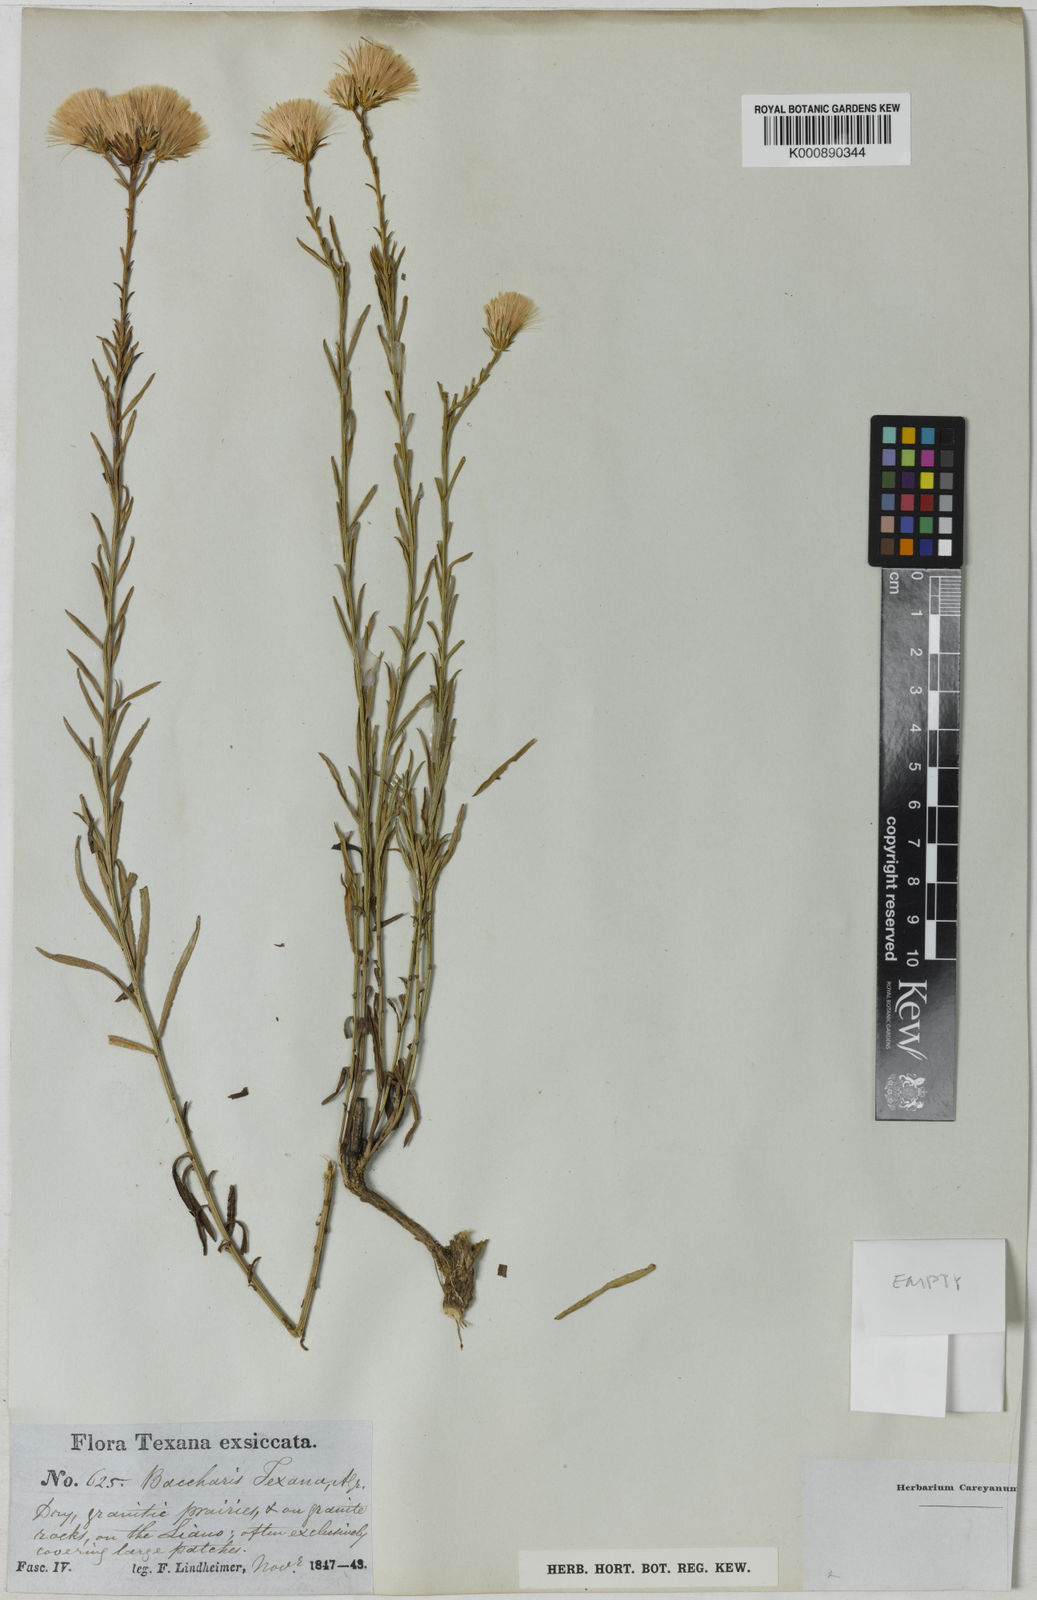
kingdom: Plantae
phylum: Tracheophyta
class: Magnoliopsida
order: Asterales
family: Asteraceae
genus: Baccharis
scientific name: Baccharis texana
